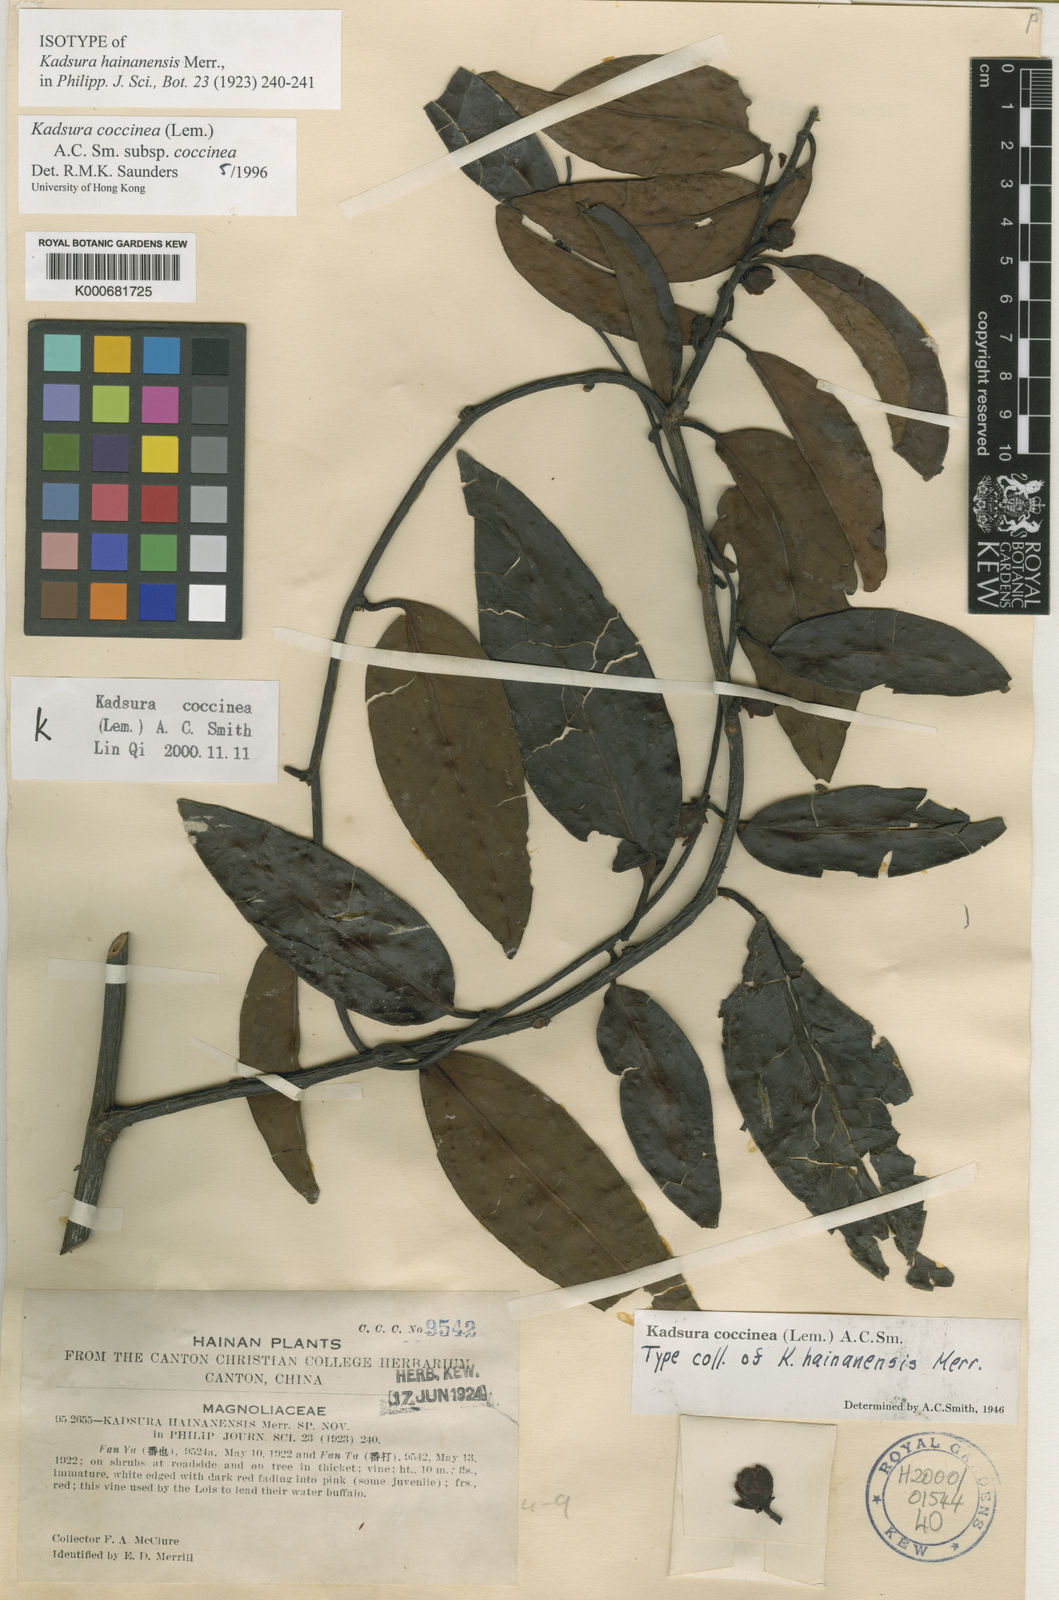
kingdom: Plantae
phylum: Tracheophyta
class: Magnoliopsida
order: Austrobaileyales
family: Schisandraceae
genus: Kadsura
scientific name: Kadsura coccinea
